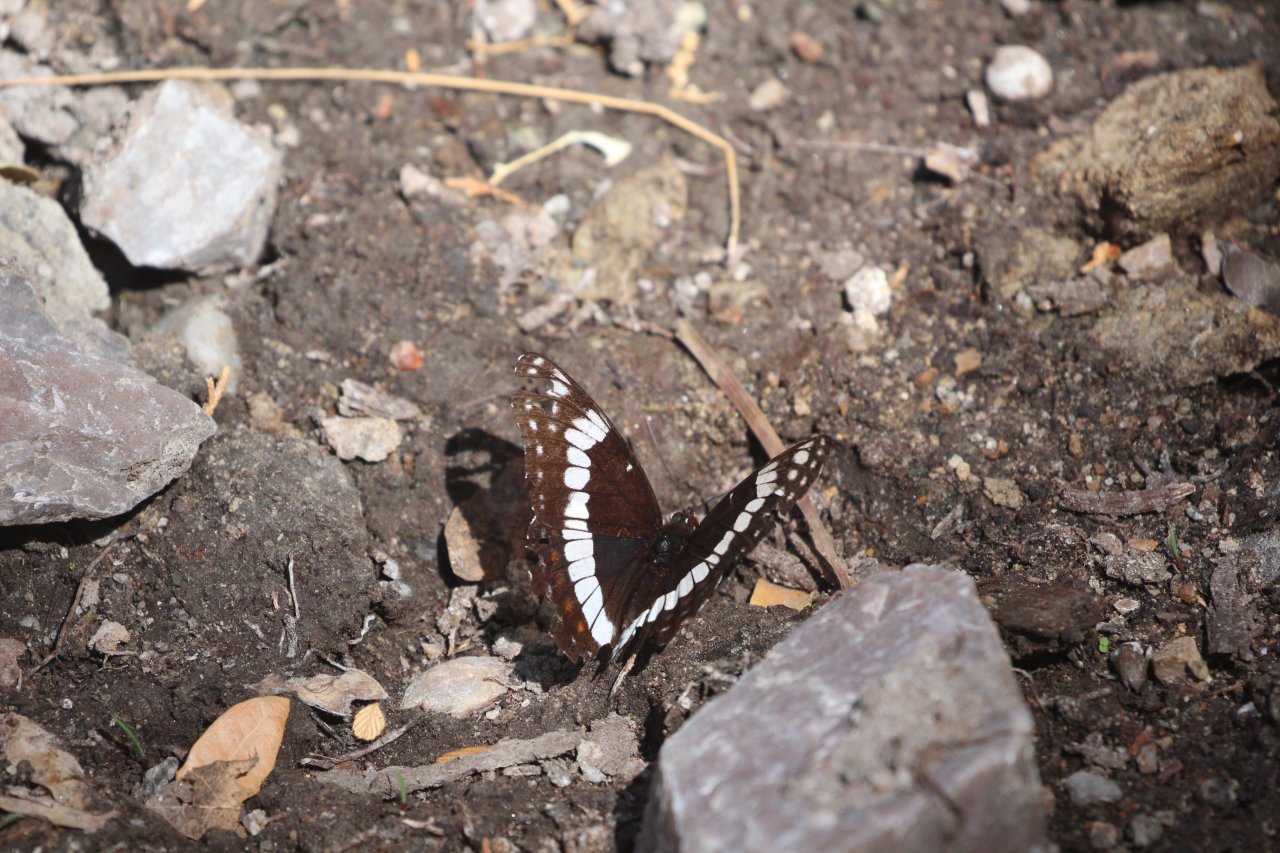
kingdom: Animalia
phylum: Arthropoda
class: Insecta
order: Lepidoptera
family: Nymphalidae
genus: Limenitis
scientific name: Limenitis weidemeyerii
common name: Weidemeyer's Admiral
